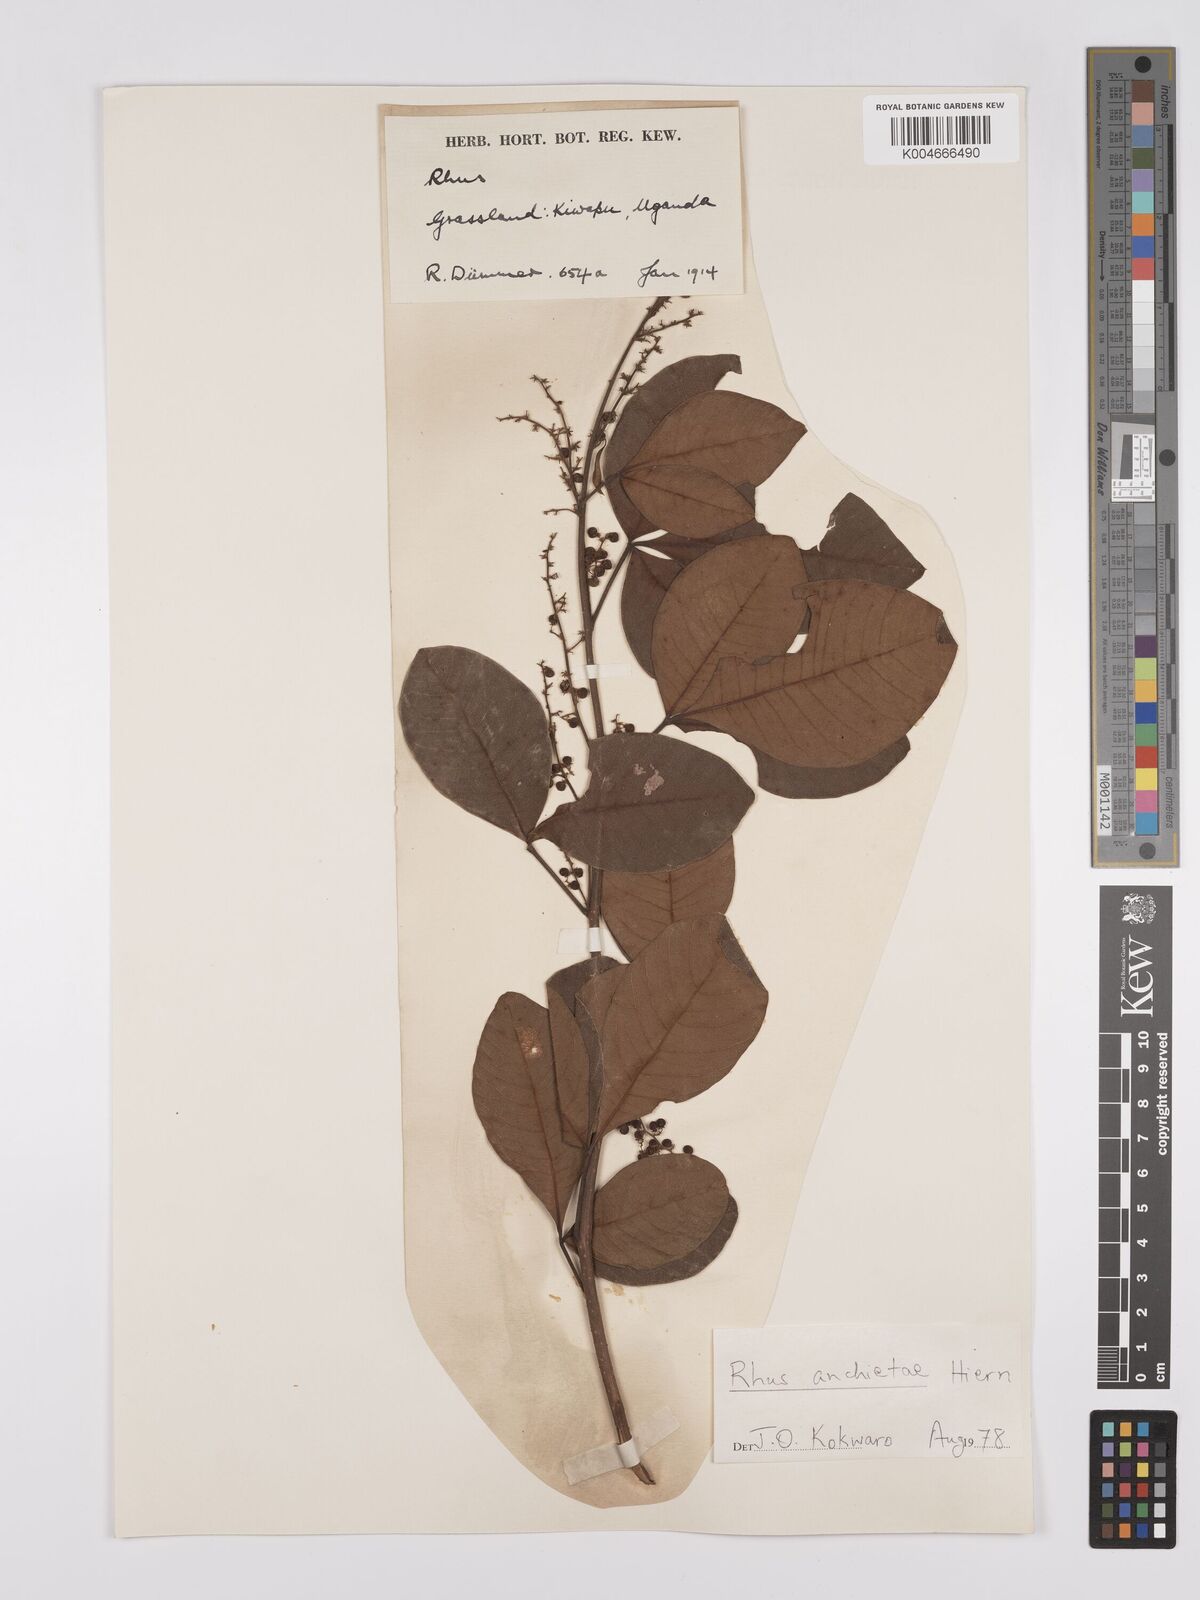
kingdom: Plantae
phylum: Tracheophyta
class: Magnoliopsida
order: Sapindales
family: Anacardiaceae
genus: Searsia
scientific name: Searsia anchietae
